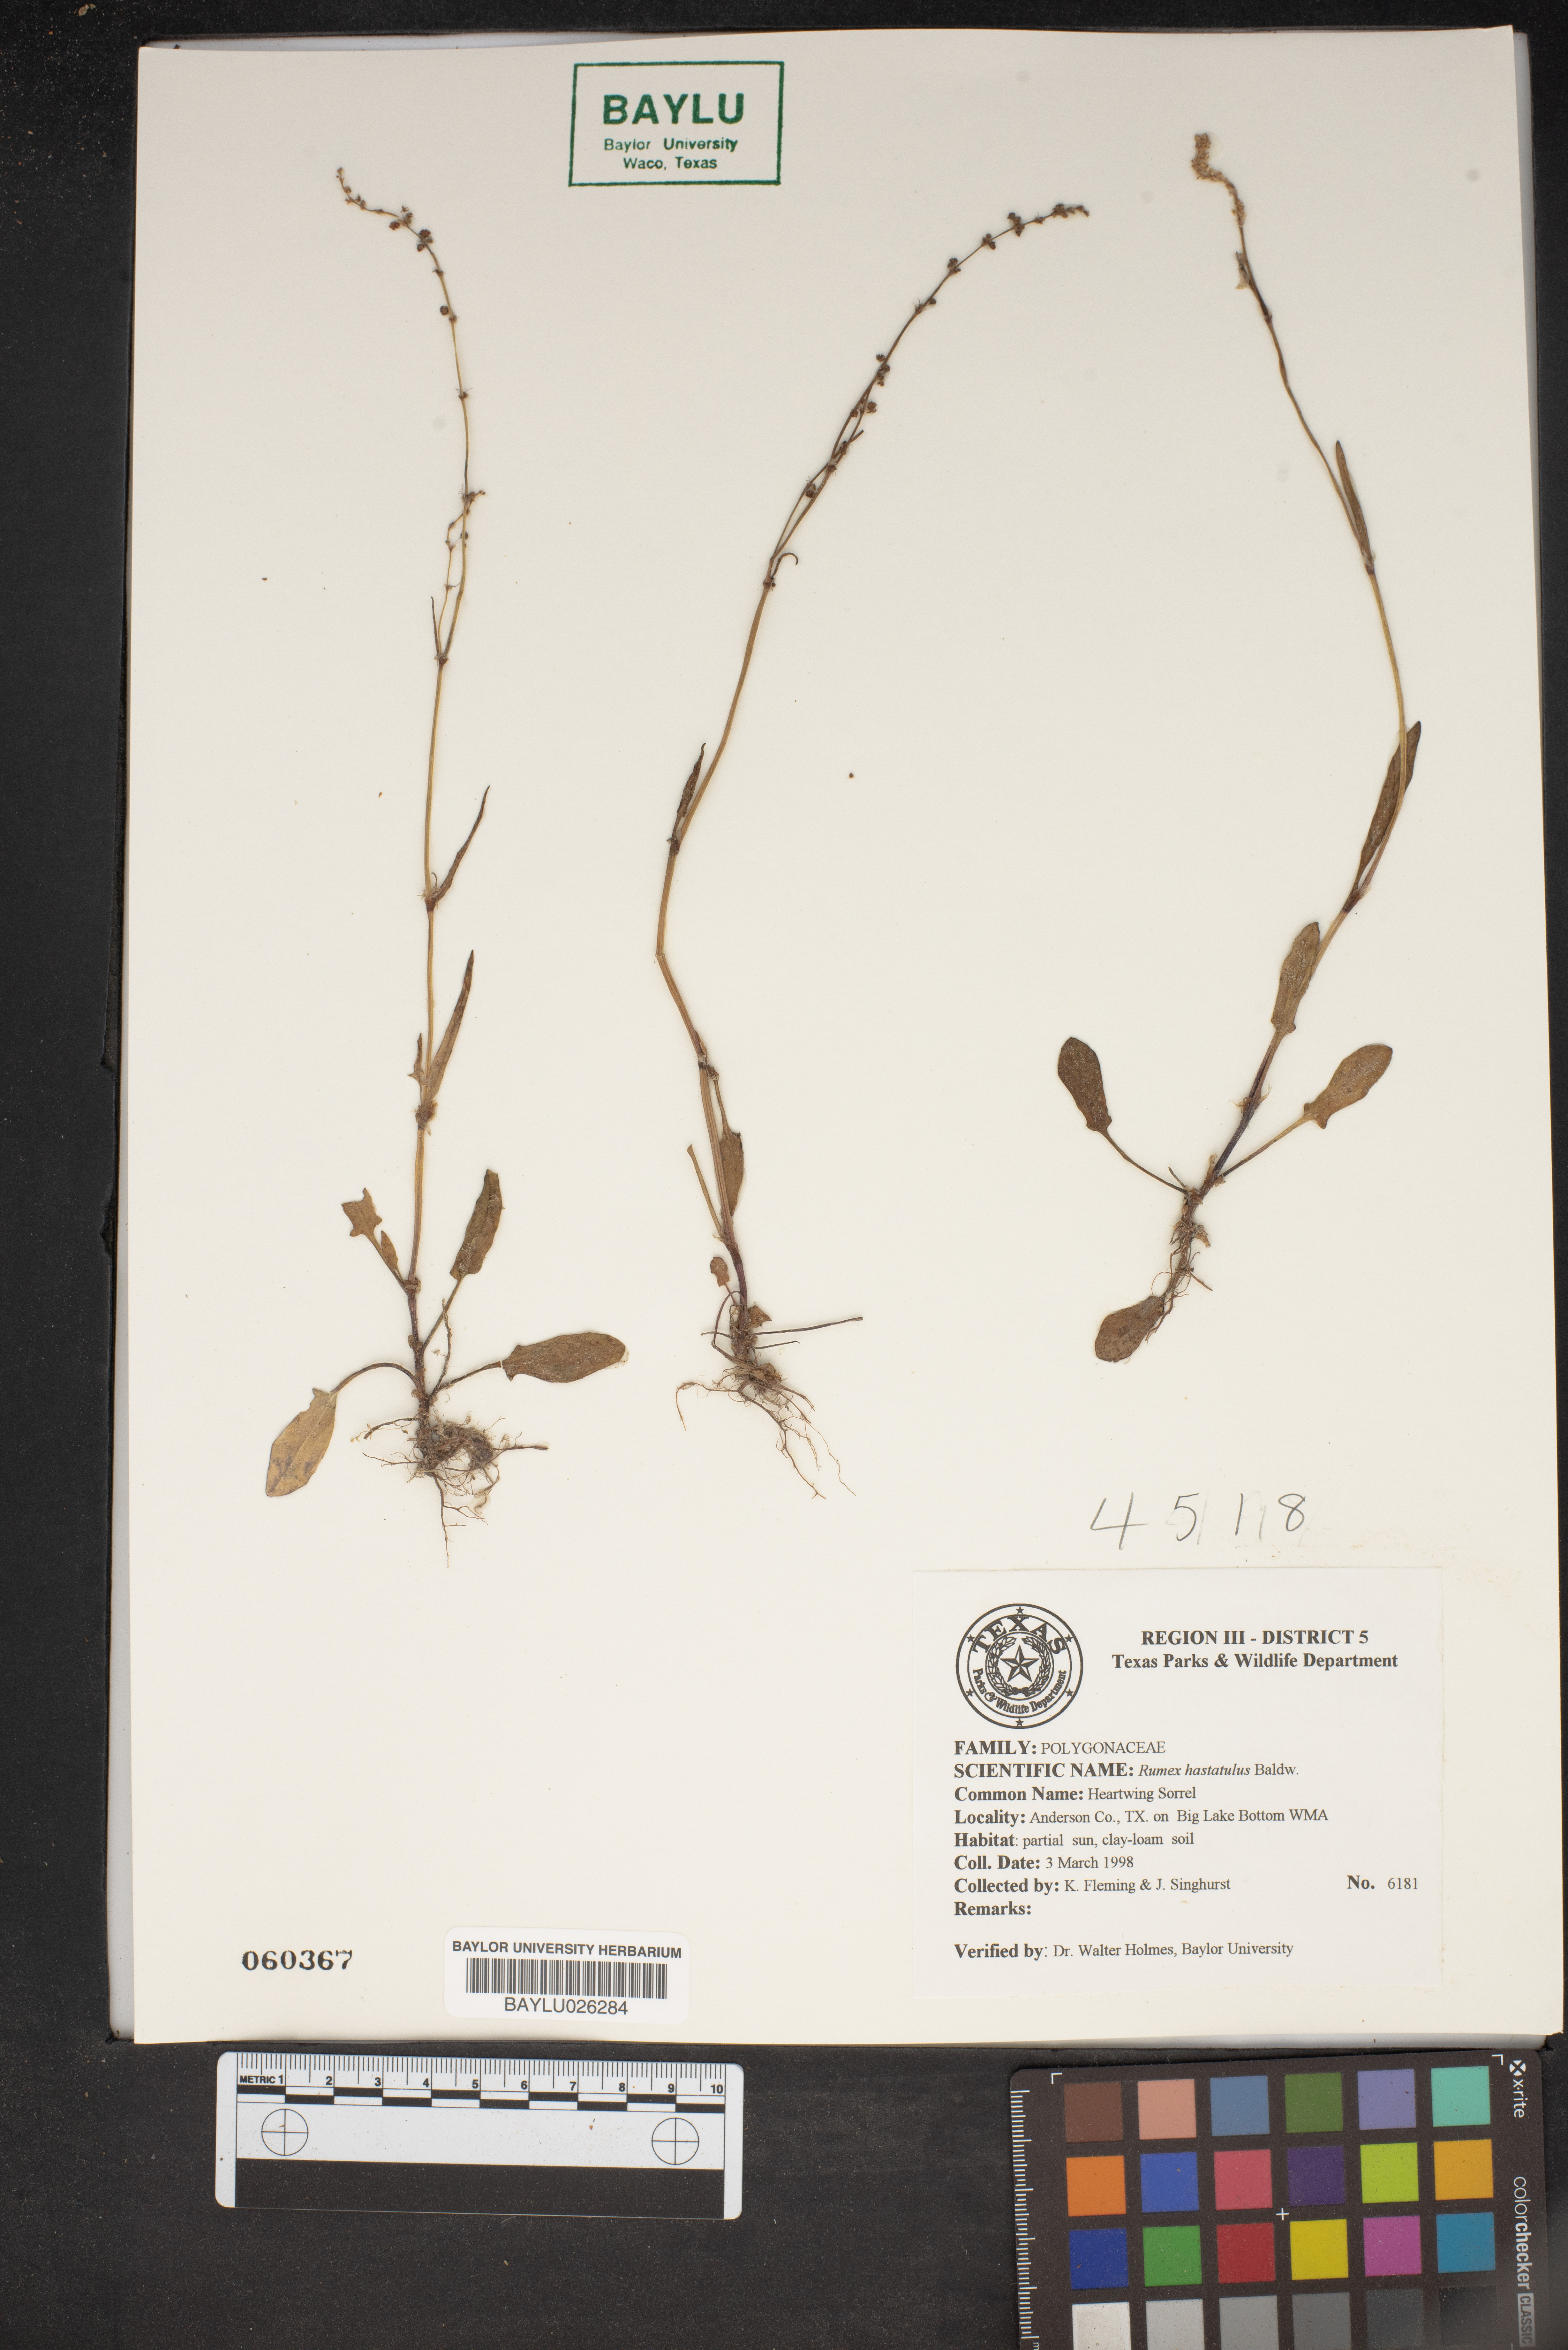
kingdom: Plantae
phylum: Tracheophyta
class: Magnoliopsida
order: Caryophyllales
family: Polygonaceae
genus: Rumex
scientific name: Rumex hastatulus
